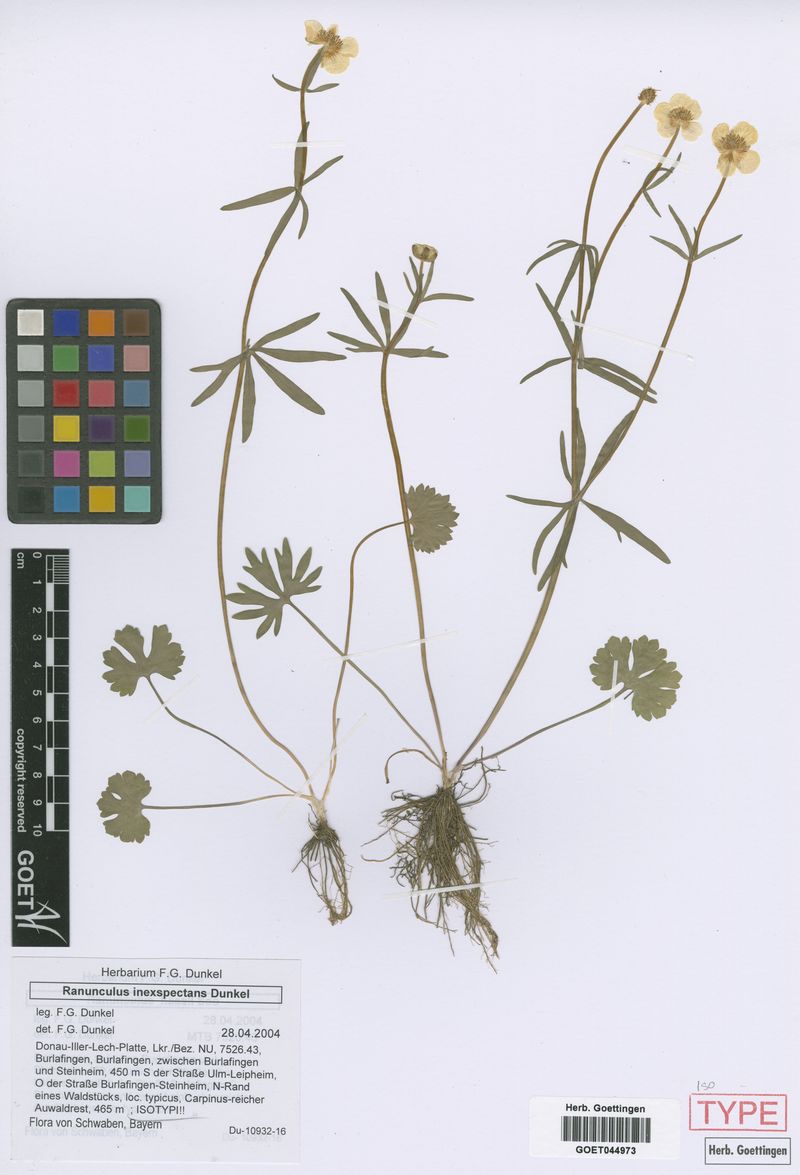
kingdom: Plantae
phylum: Tracheophyta
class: Magnoliopsida
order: Ranunculales
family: Ranunculaceae
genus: Ranunculus
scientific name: Ranunculus inexspectans
